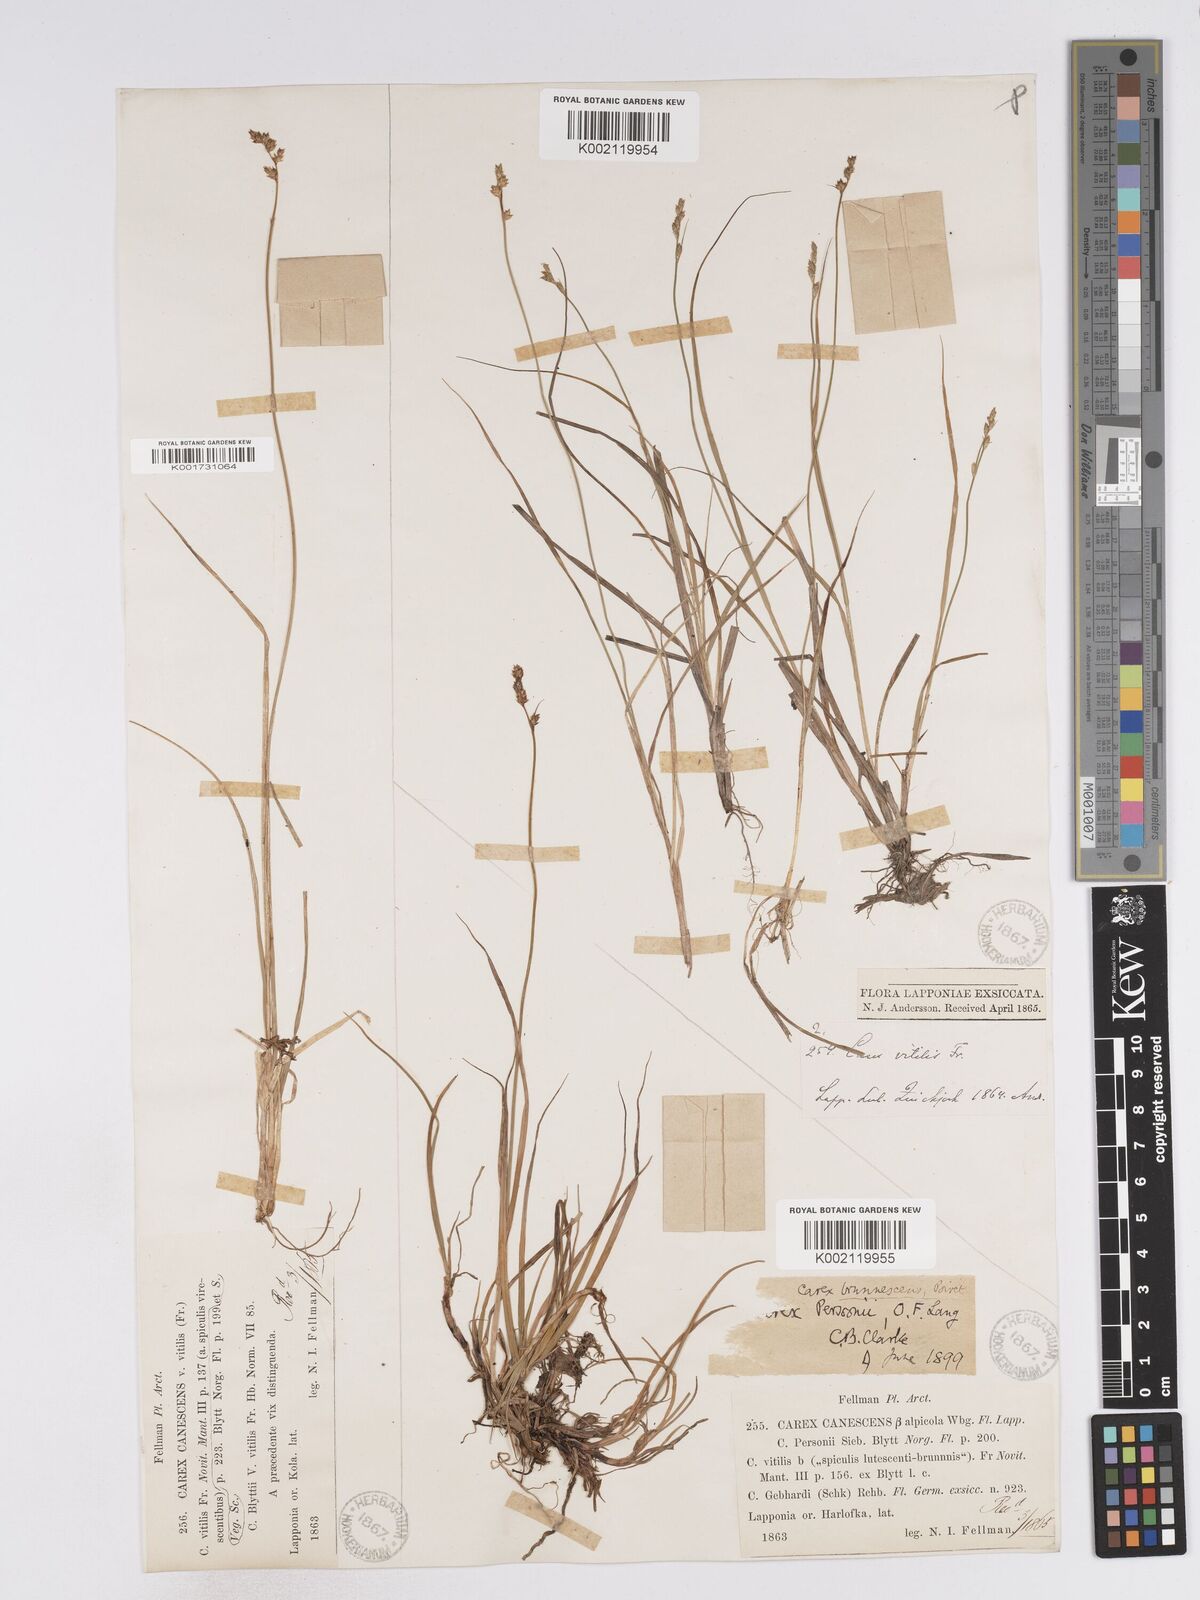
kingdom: Plantae
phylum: Tracheophyta
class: Liliopsida
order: Poales
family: Cyperaceae
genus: Carex
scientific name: Carex canescens
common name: White sedge
